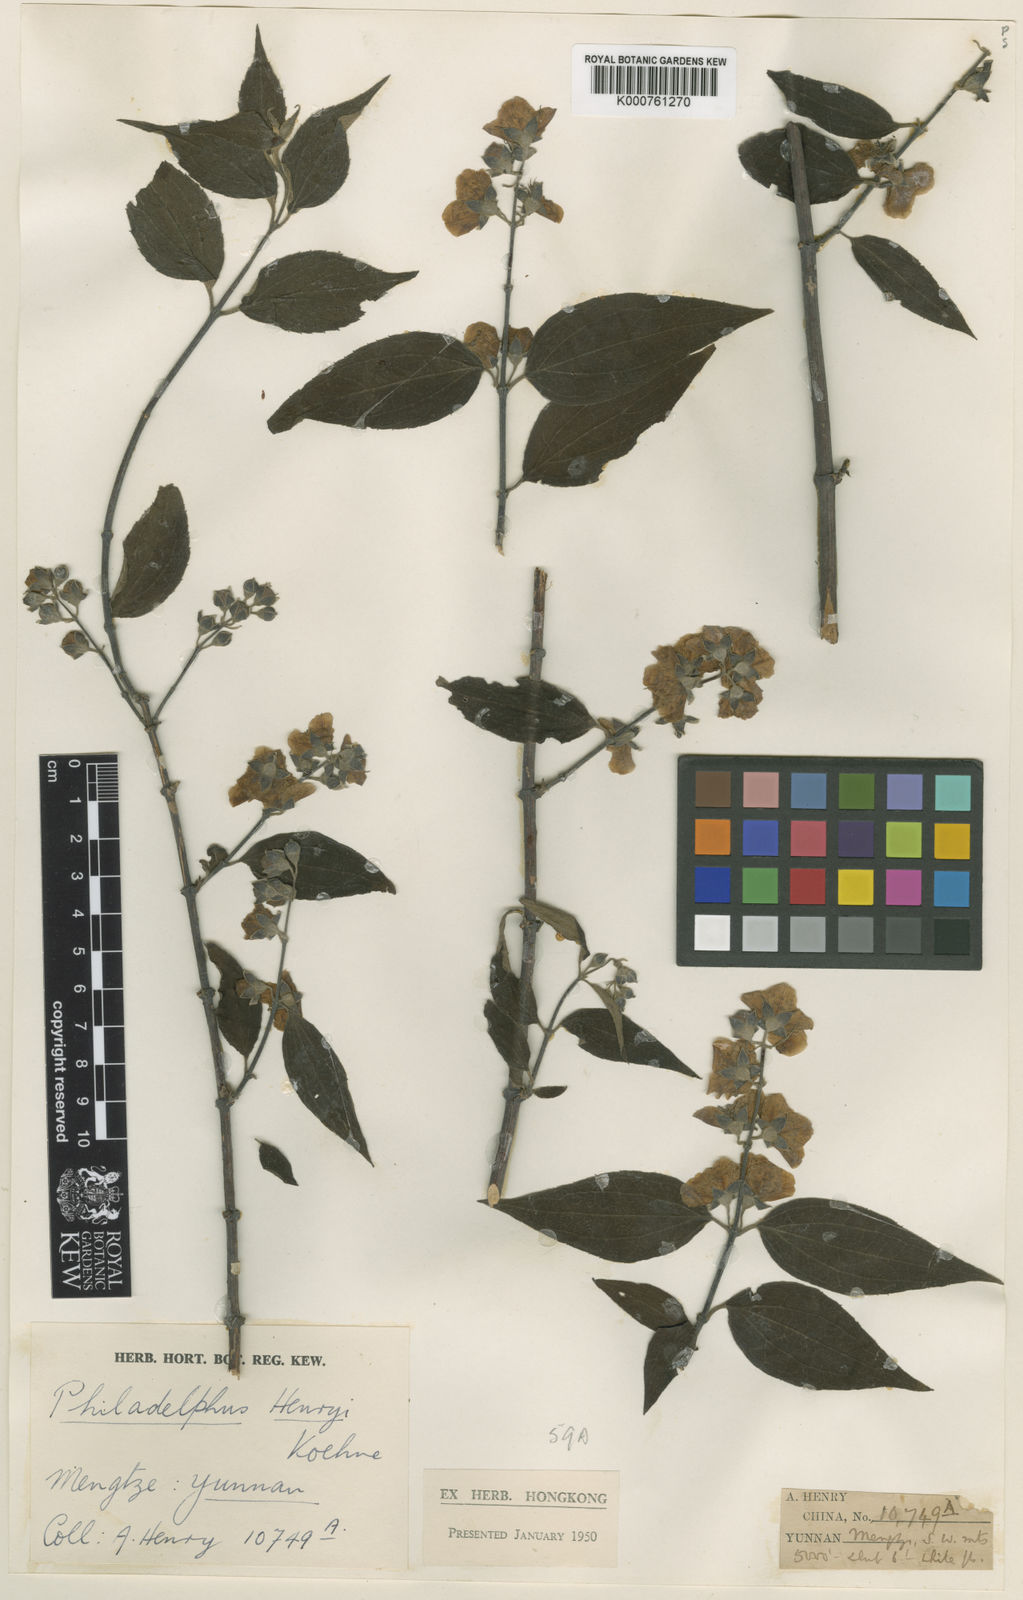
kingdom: Plantae
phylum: Tracheophyta
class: Magnoliopsida
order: Cornales
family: Hydrangeaceae
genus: Philadelphus
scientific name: Philadelphus henryi
